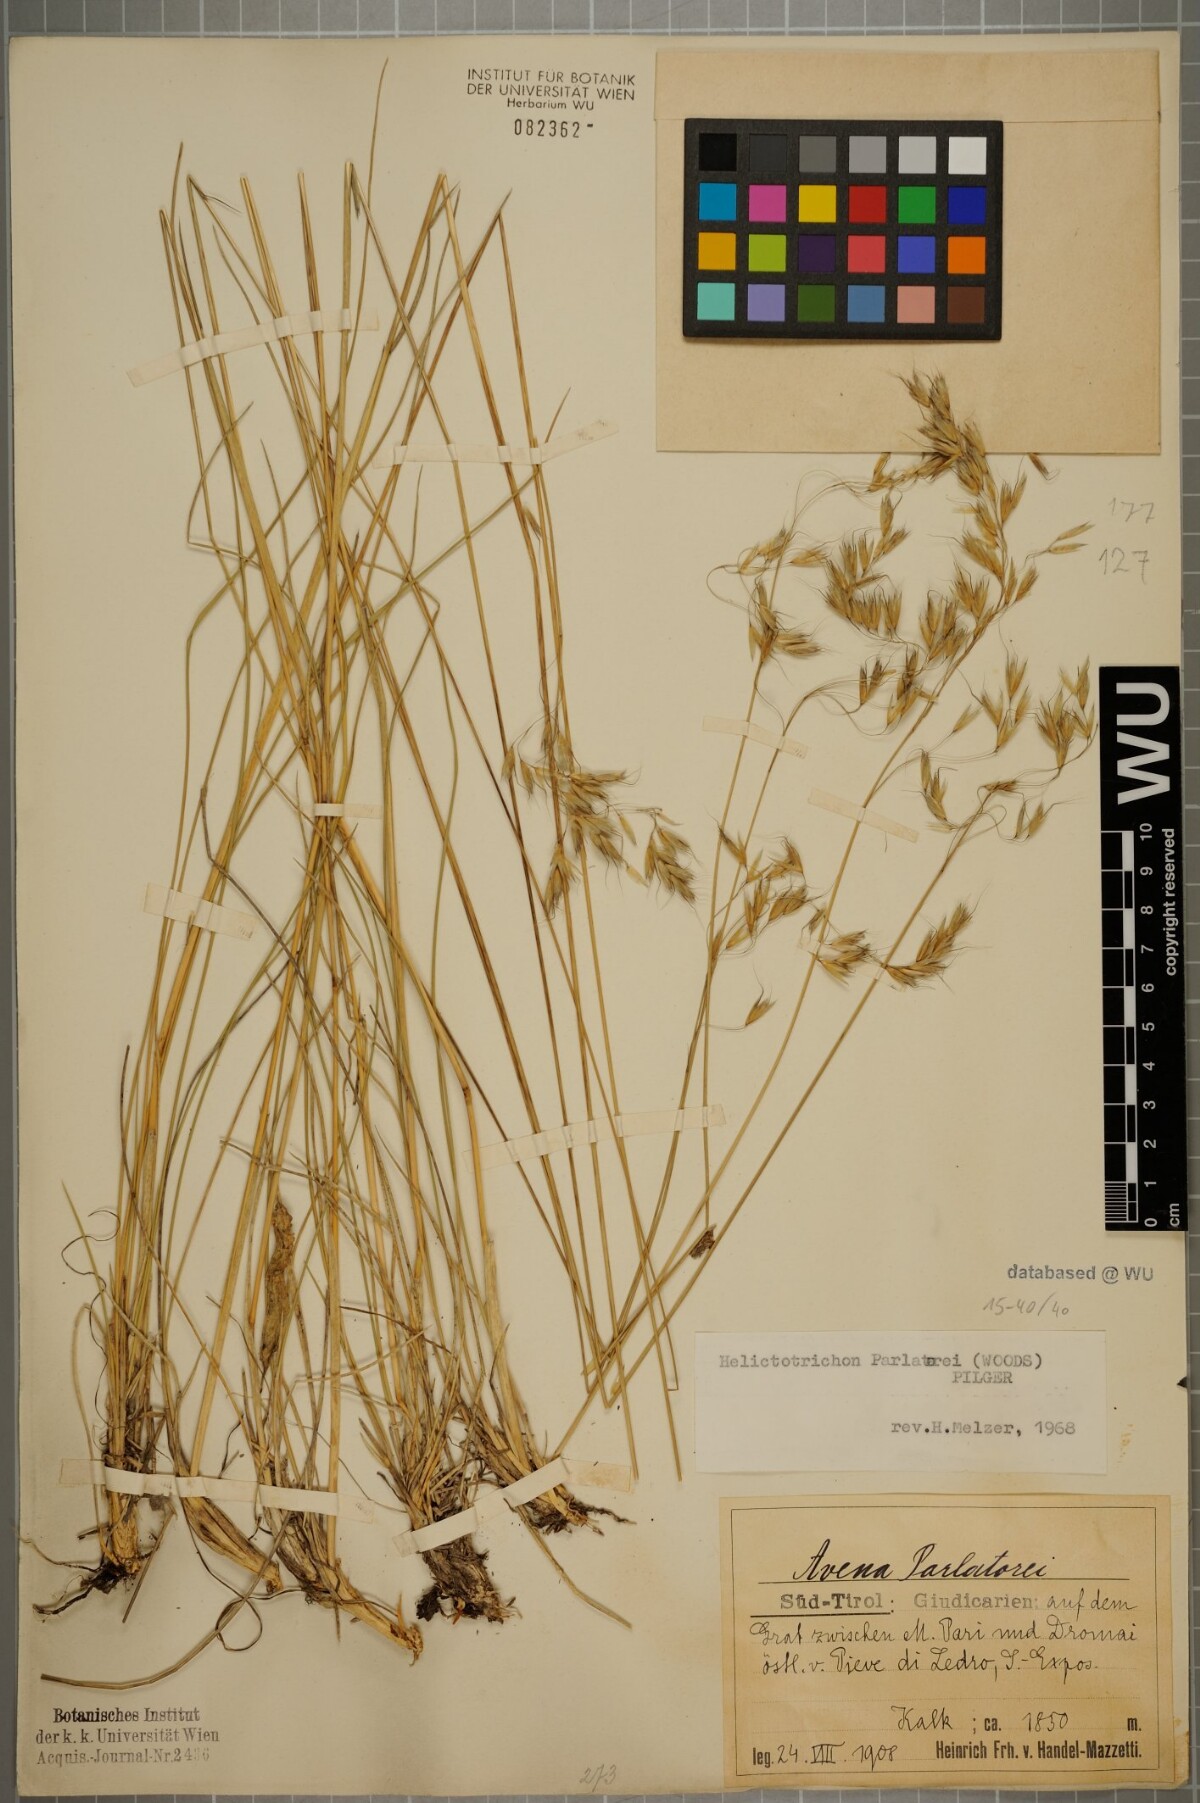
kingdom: Plantae
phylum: Tracheophyta
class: Liliopsida
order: Poales
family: Poaceae
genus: Helictotrichon
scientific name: Helictotrichon parlatorei
